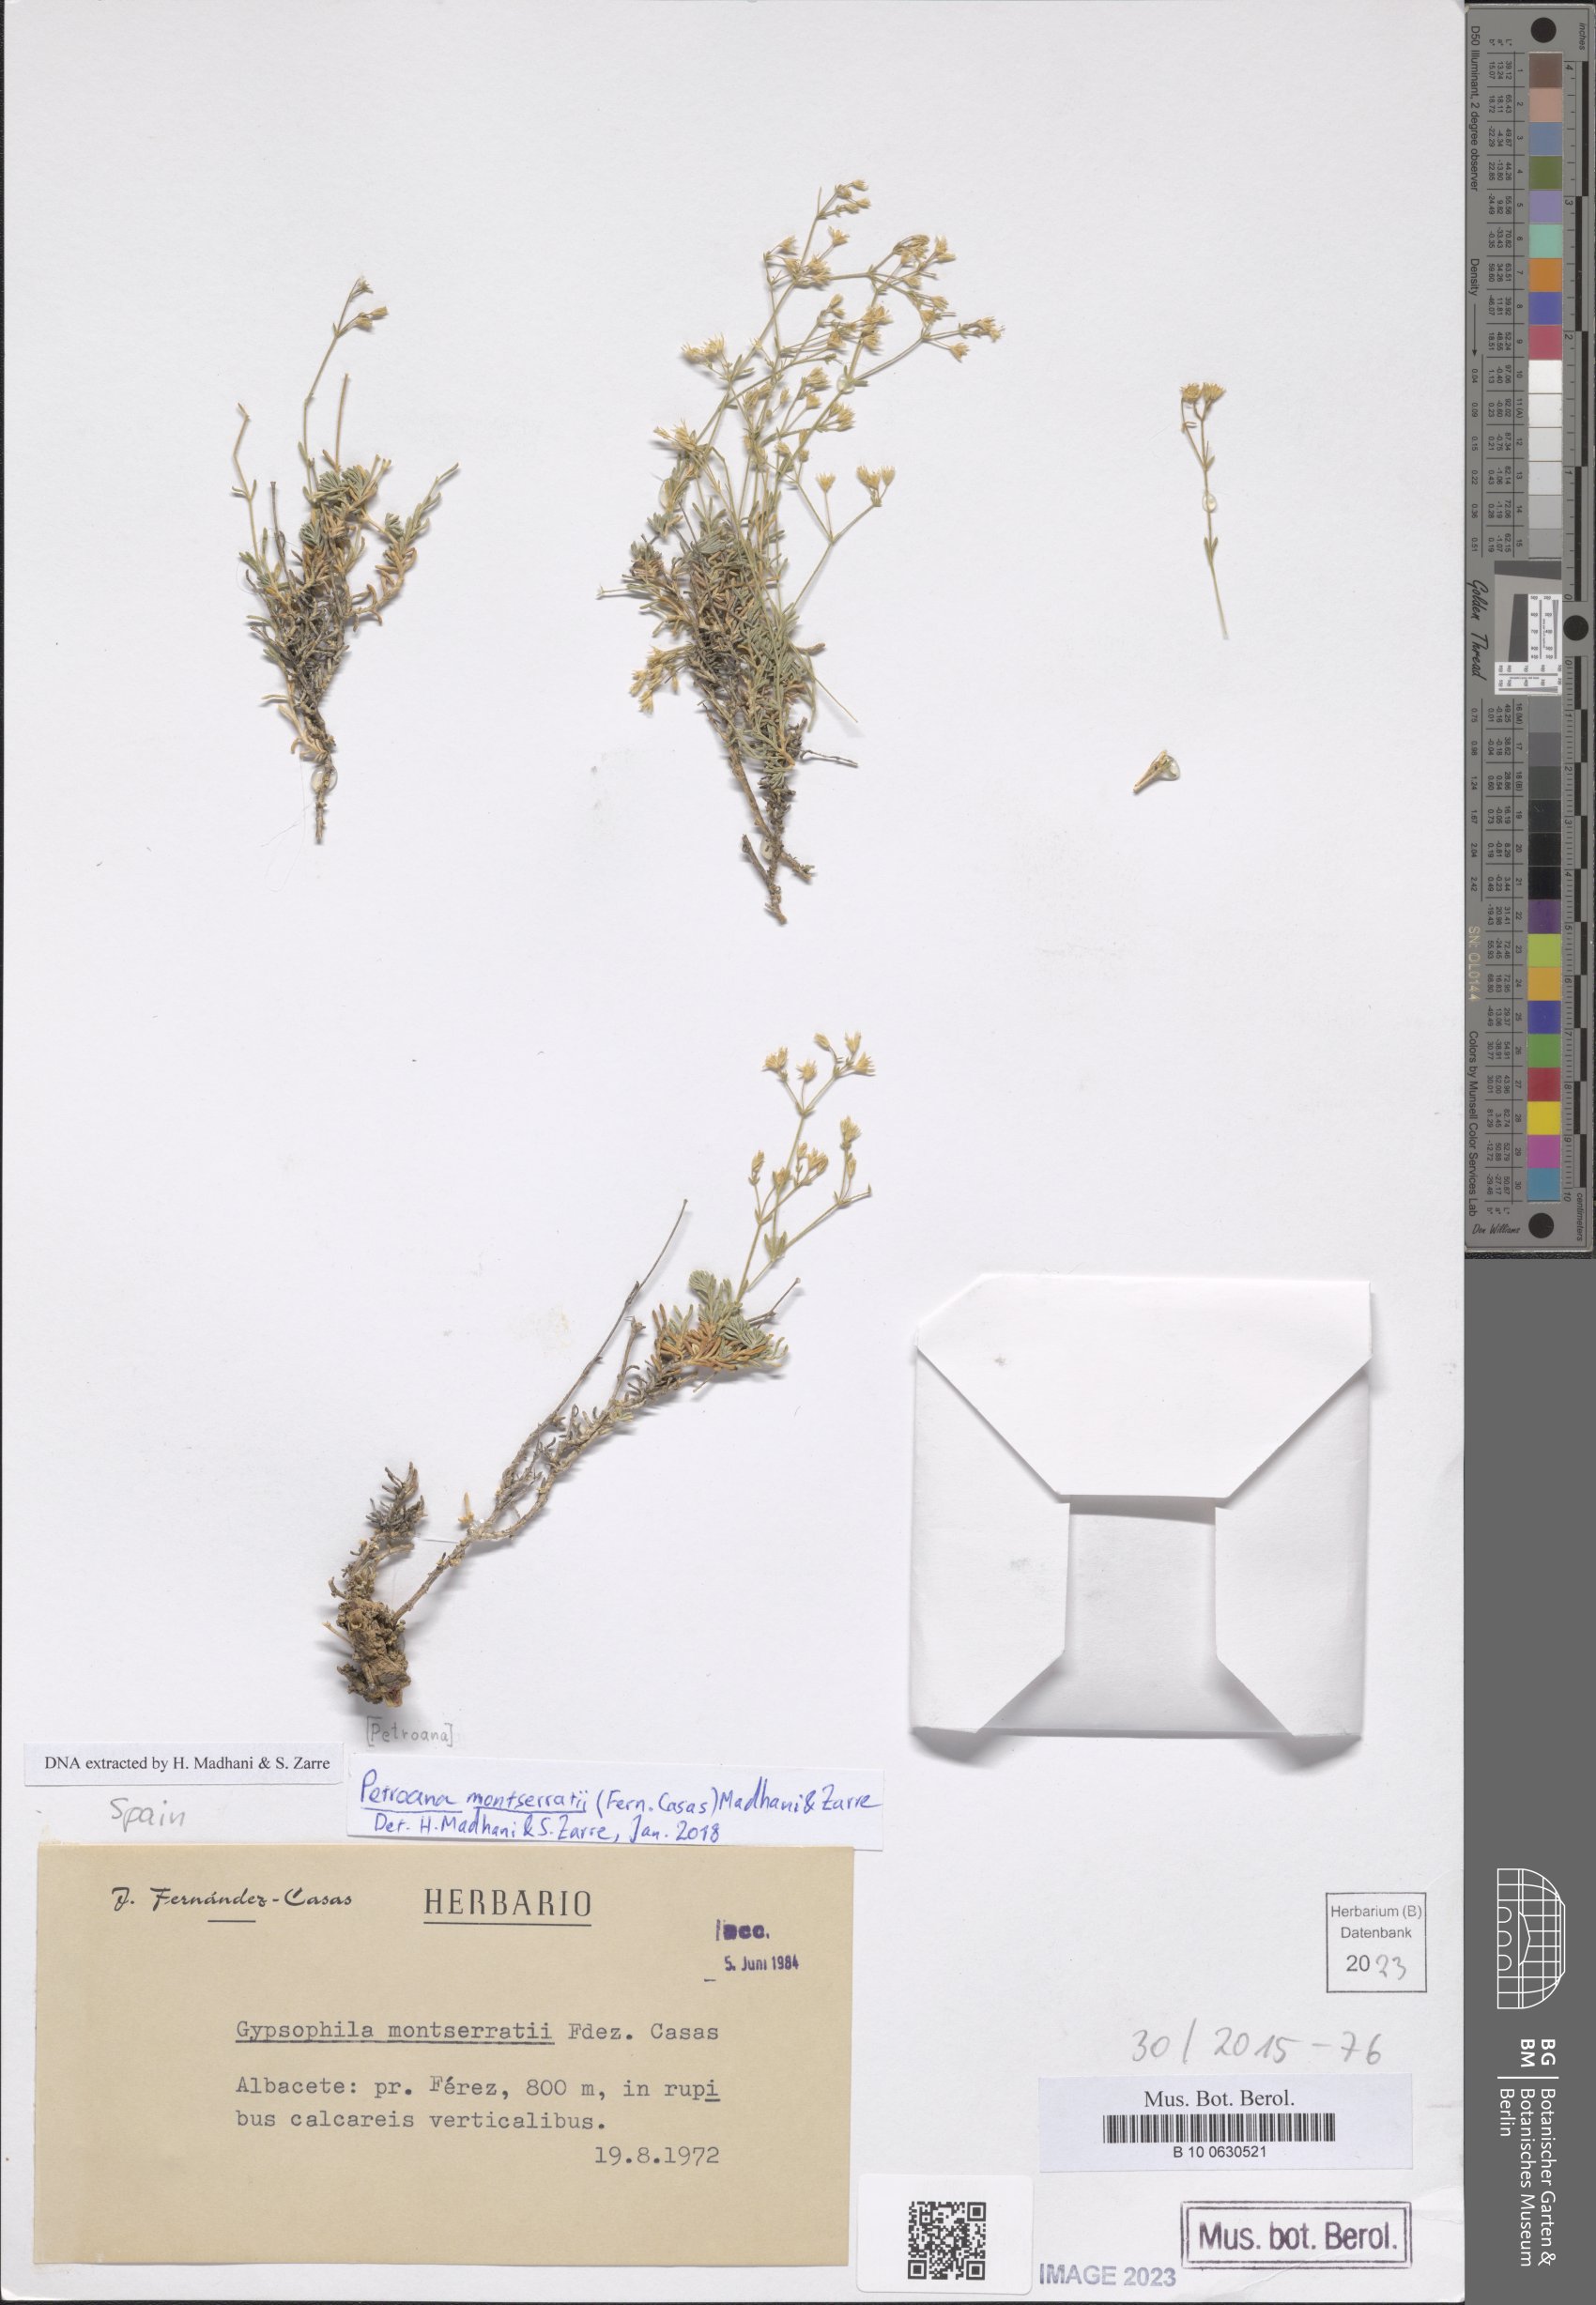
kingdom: Plantae
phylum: Tracheophyta
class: Magnoliopsida
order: Caryophyllales
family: Caryophyllaceae
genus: Petroana
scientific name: Petroana montserratii
